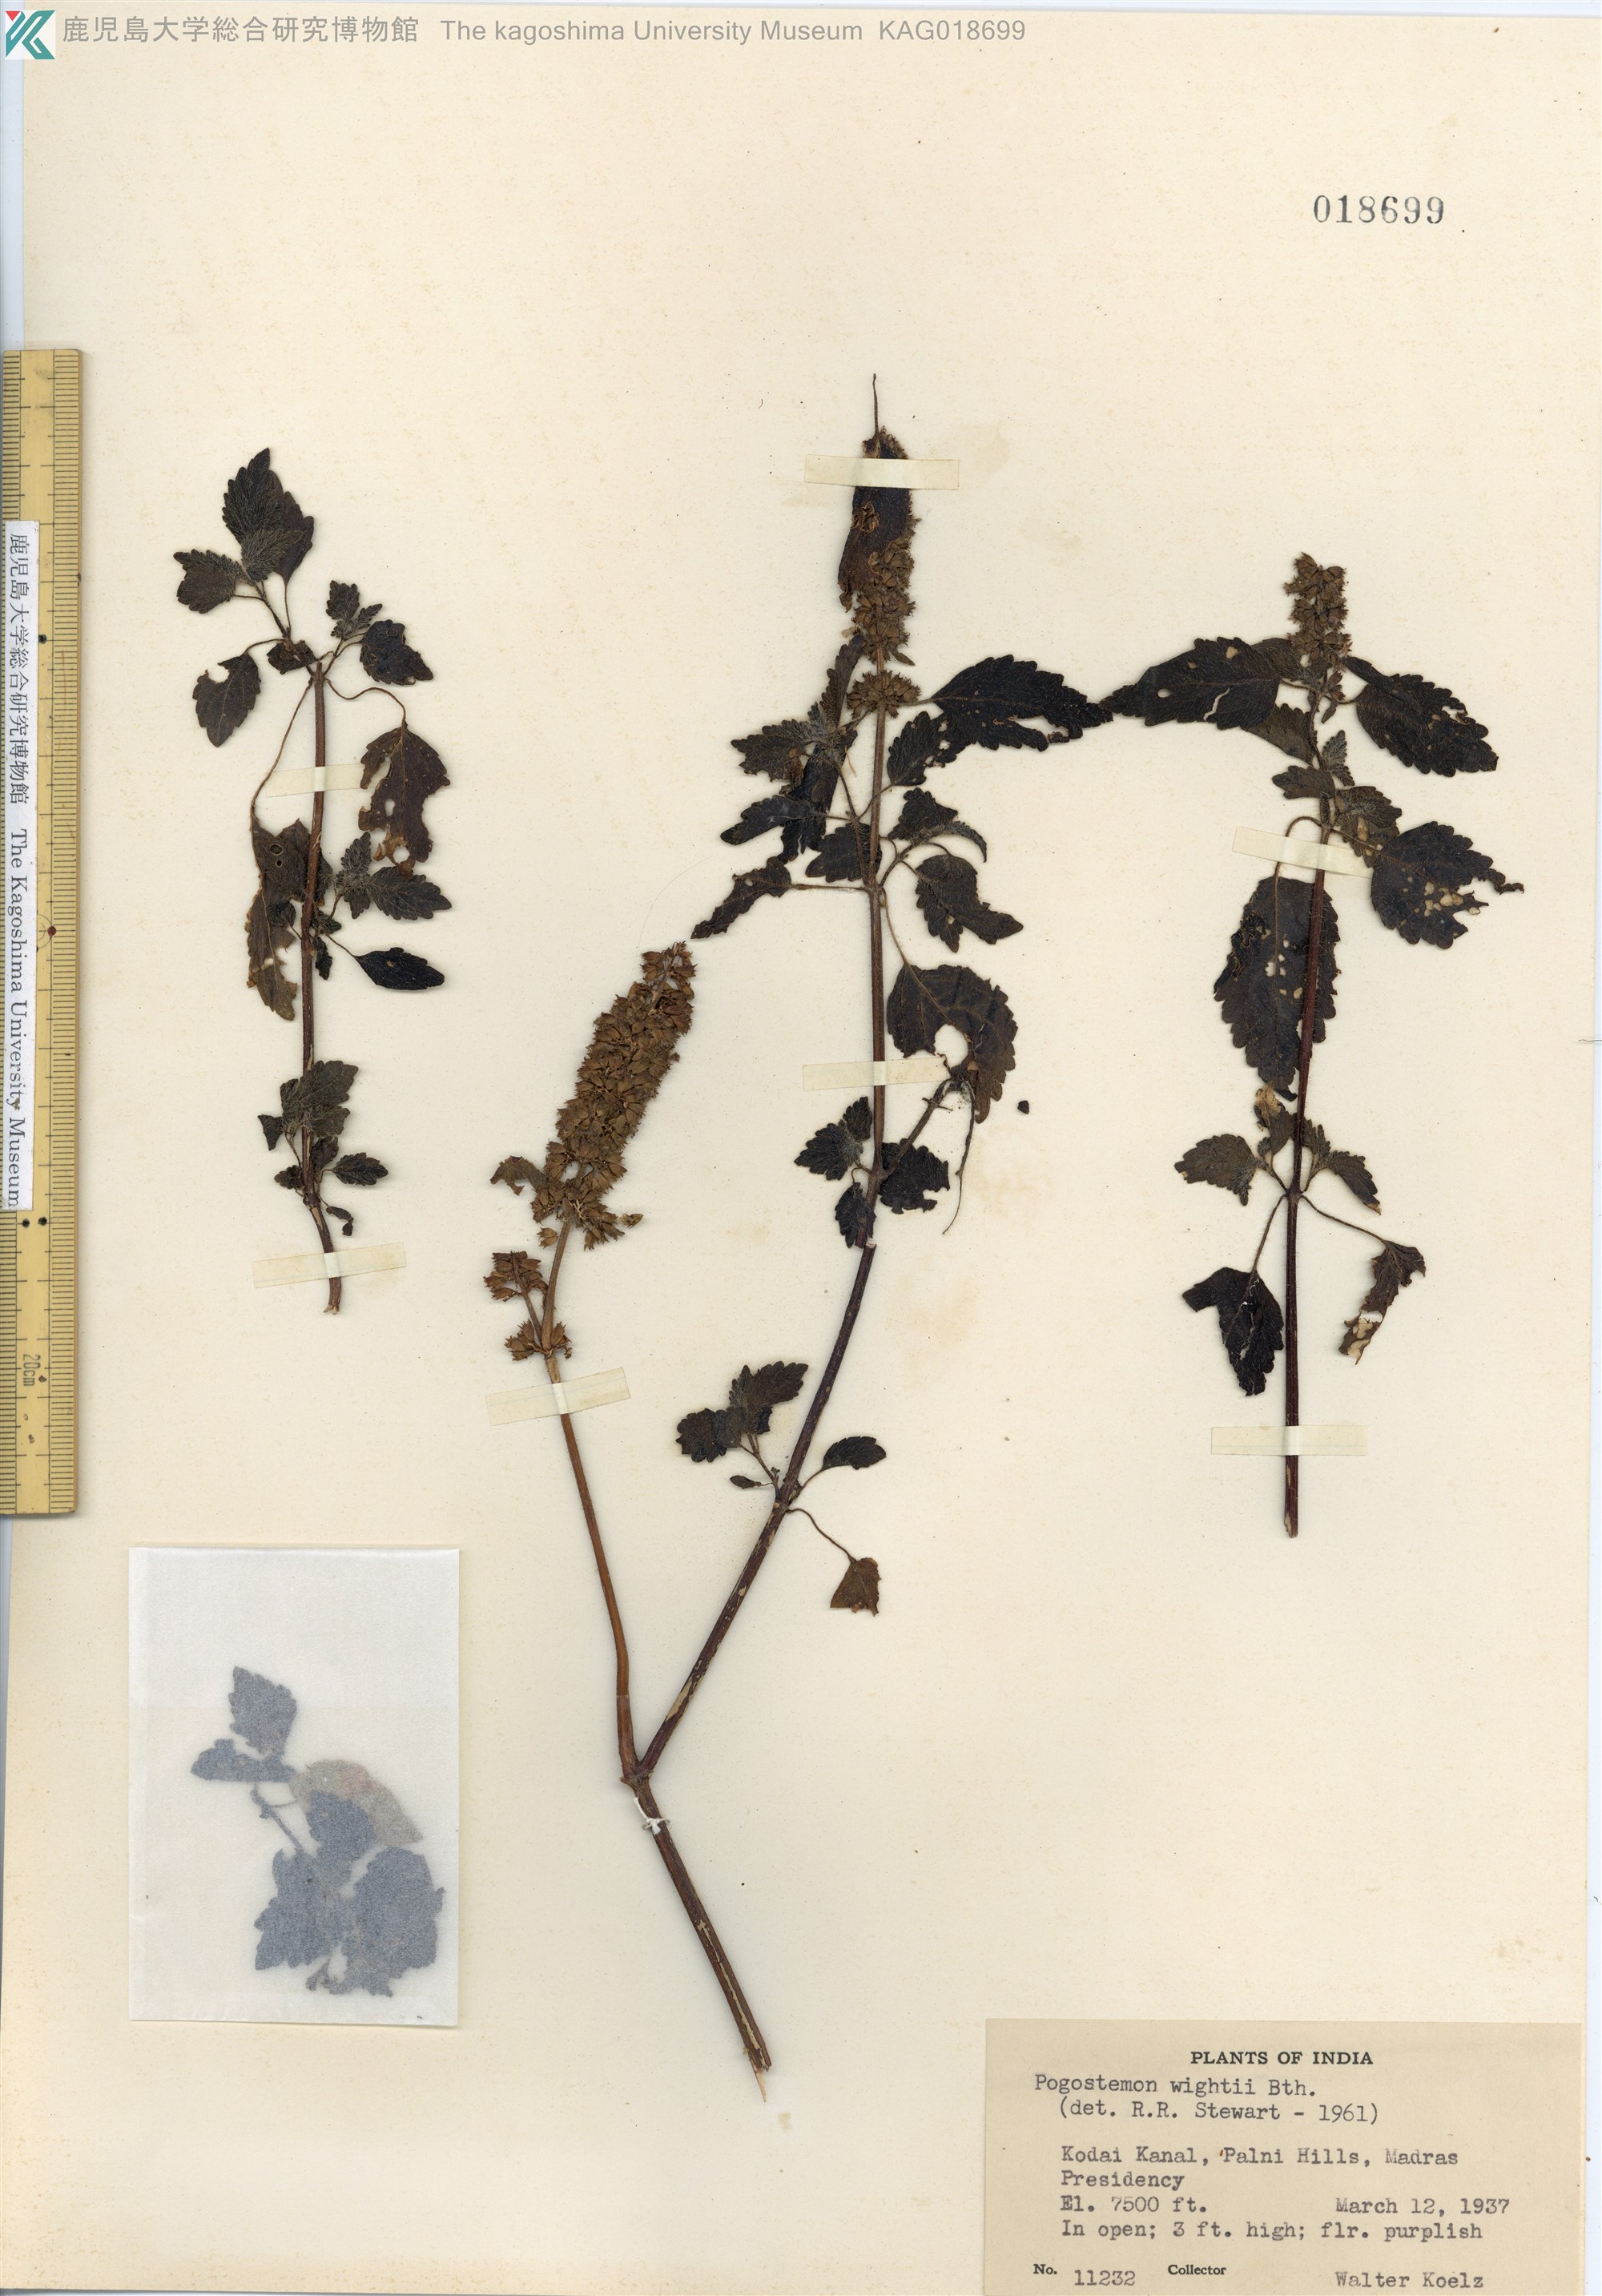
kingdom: Plantae
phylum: Tracheophyta
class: Magnoliopsida
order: Lamiales
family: Lamiaceae
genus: Pogostemon
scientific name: Pogostemon wightii
